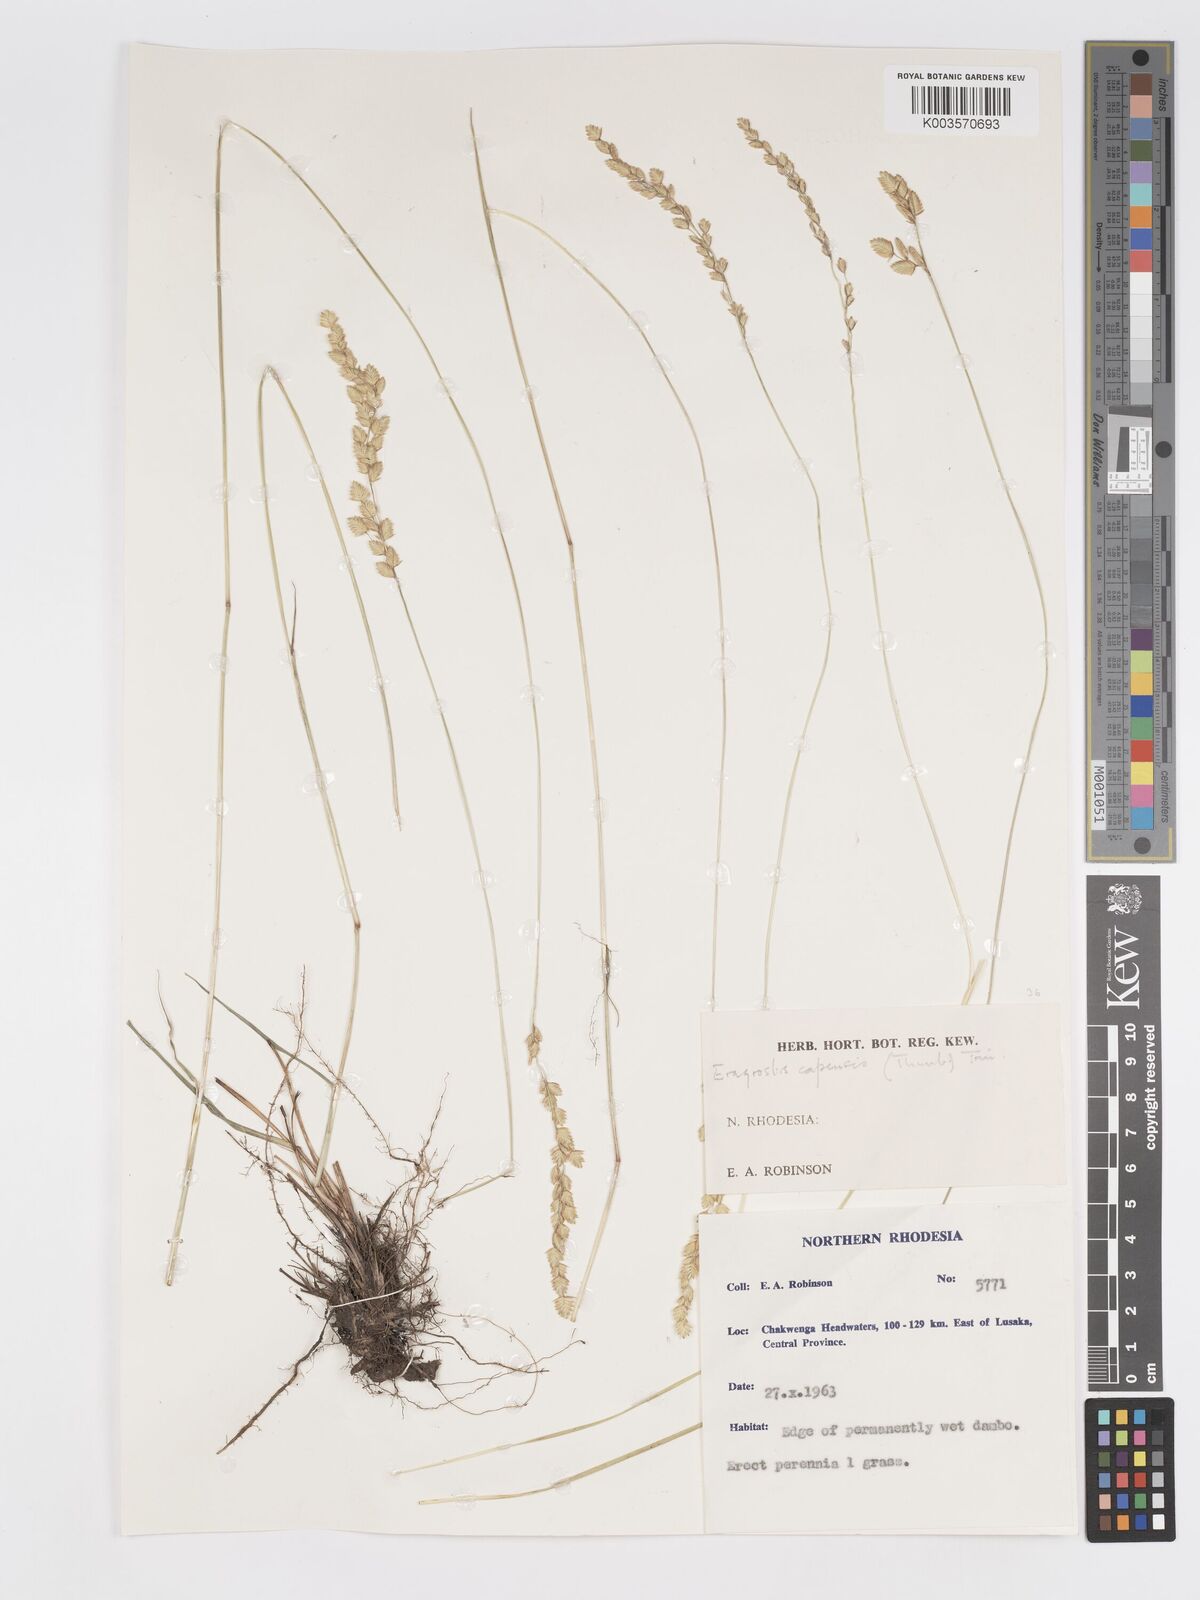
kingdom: Plantae
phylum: Tracheophyta
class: Liliopsida
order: Poales
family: Poaceae
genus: Eragrostis
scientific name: Eragrostis capensis
